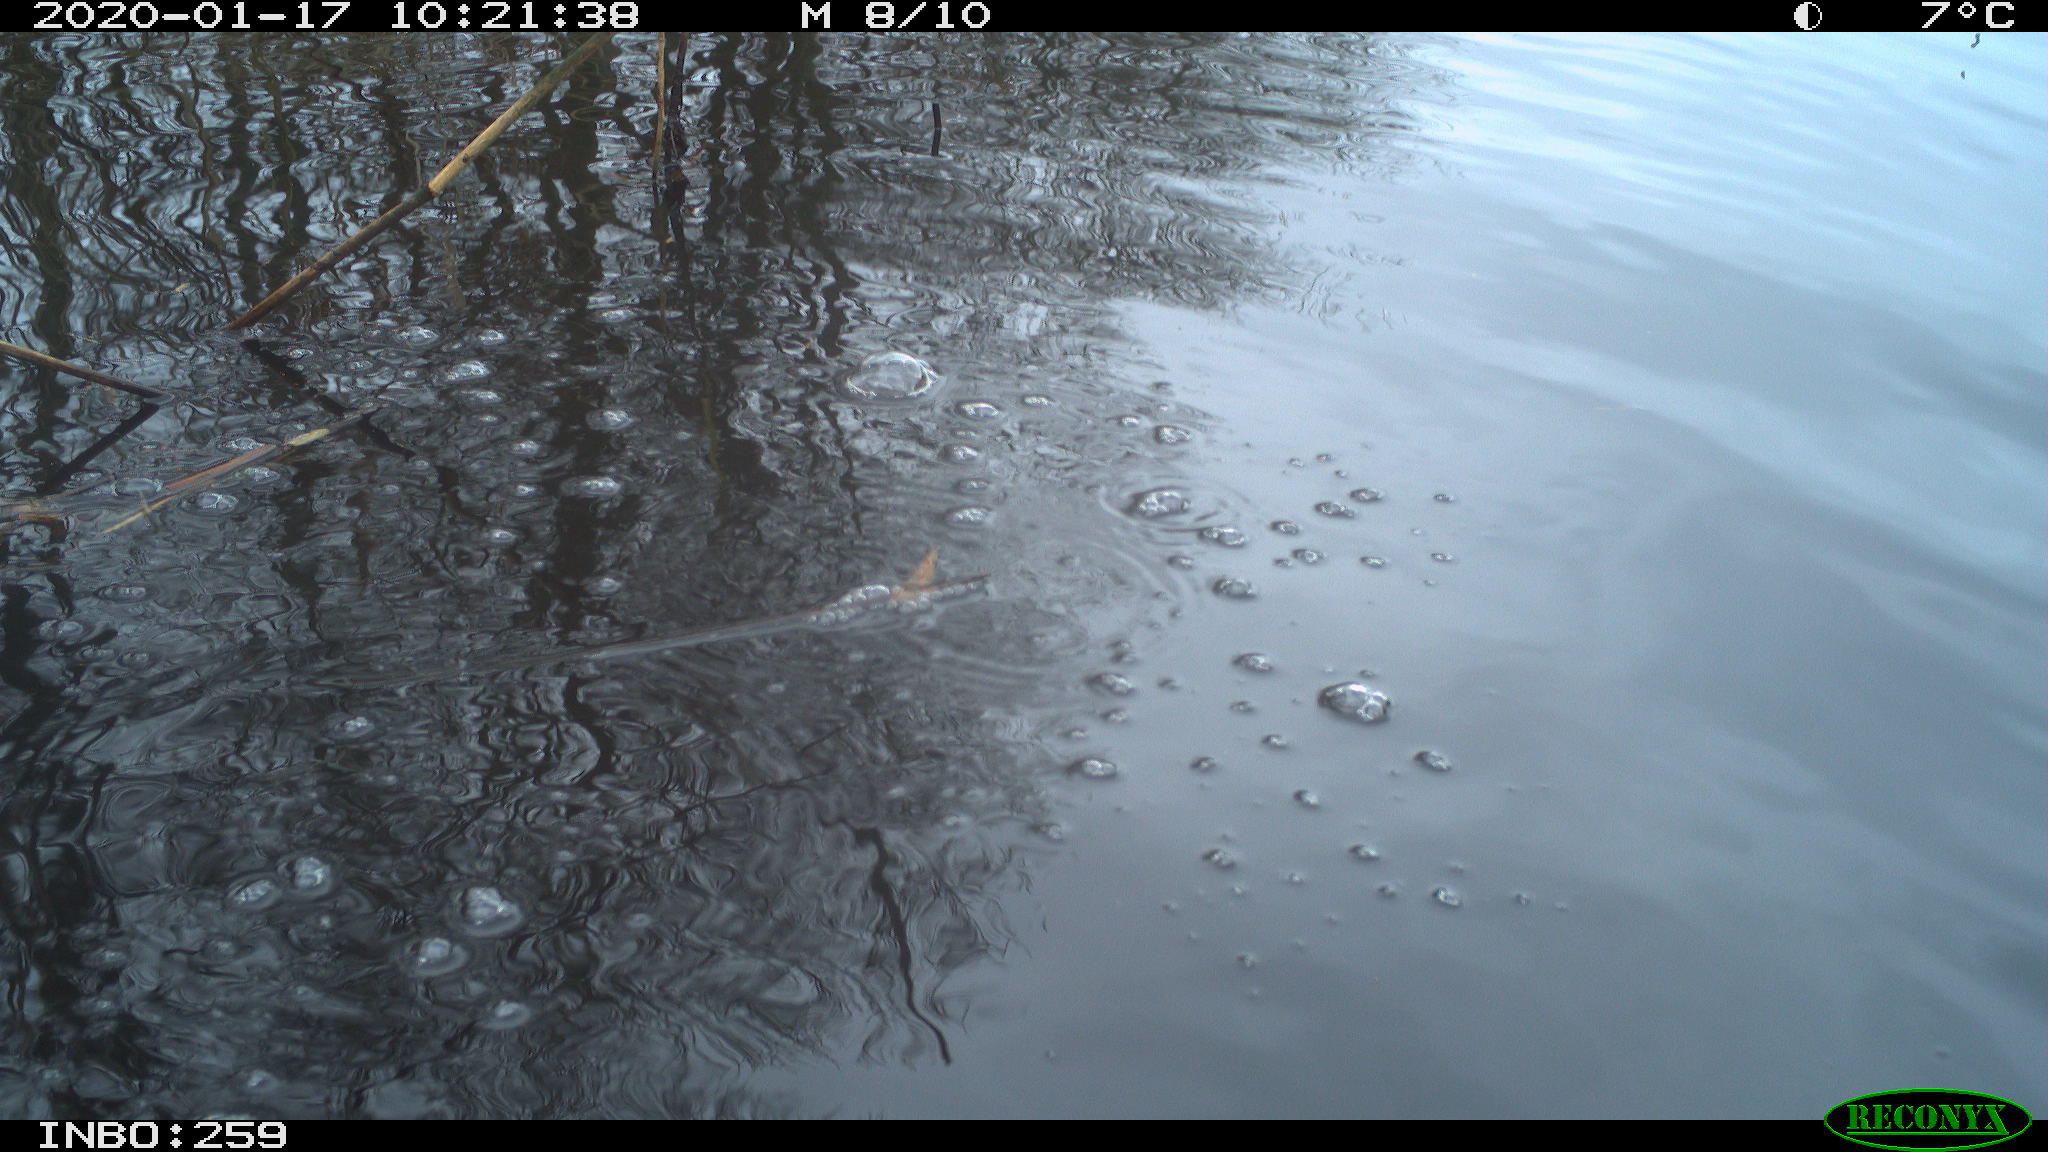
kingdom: Animalia
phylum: Chordata
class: Aves
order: Gruiformes
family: Rallidae
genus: Gallinula
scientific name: Gallinula chloropus
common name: Common moorhen
